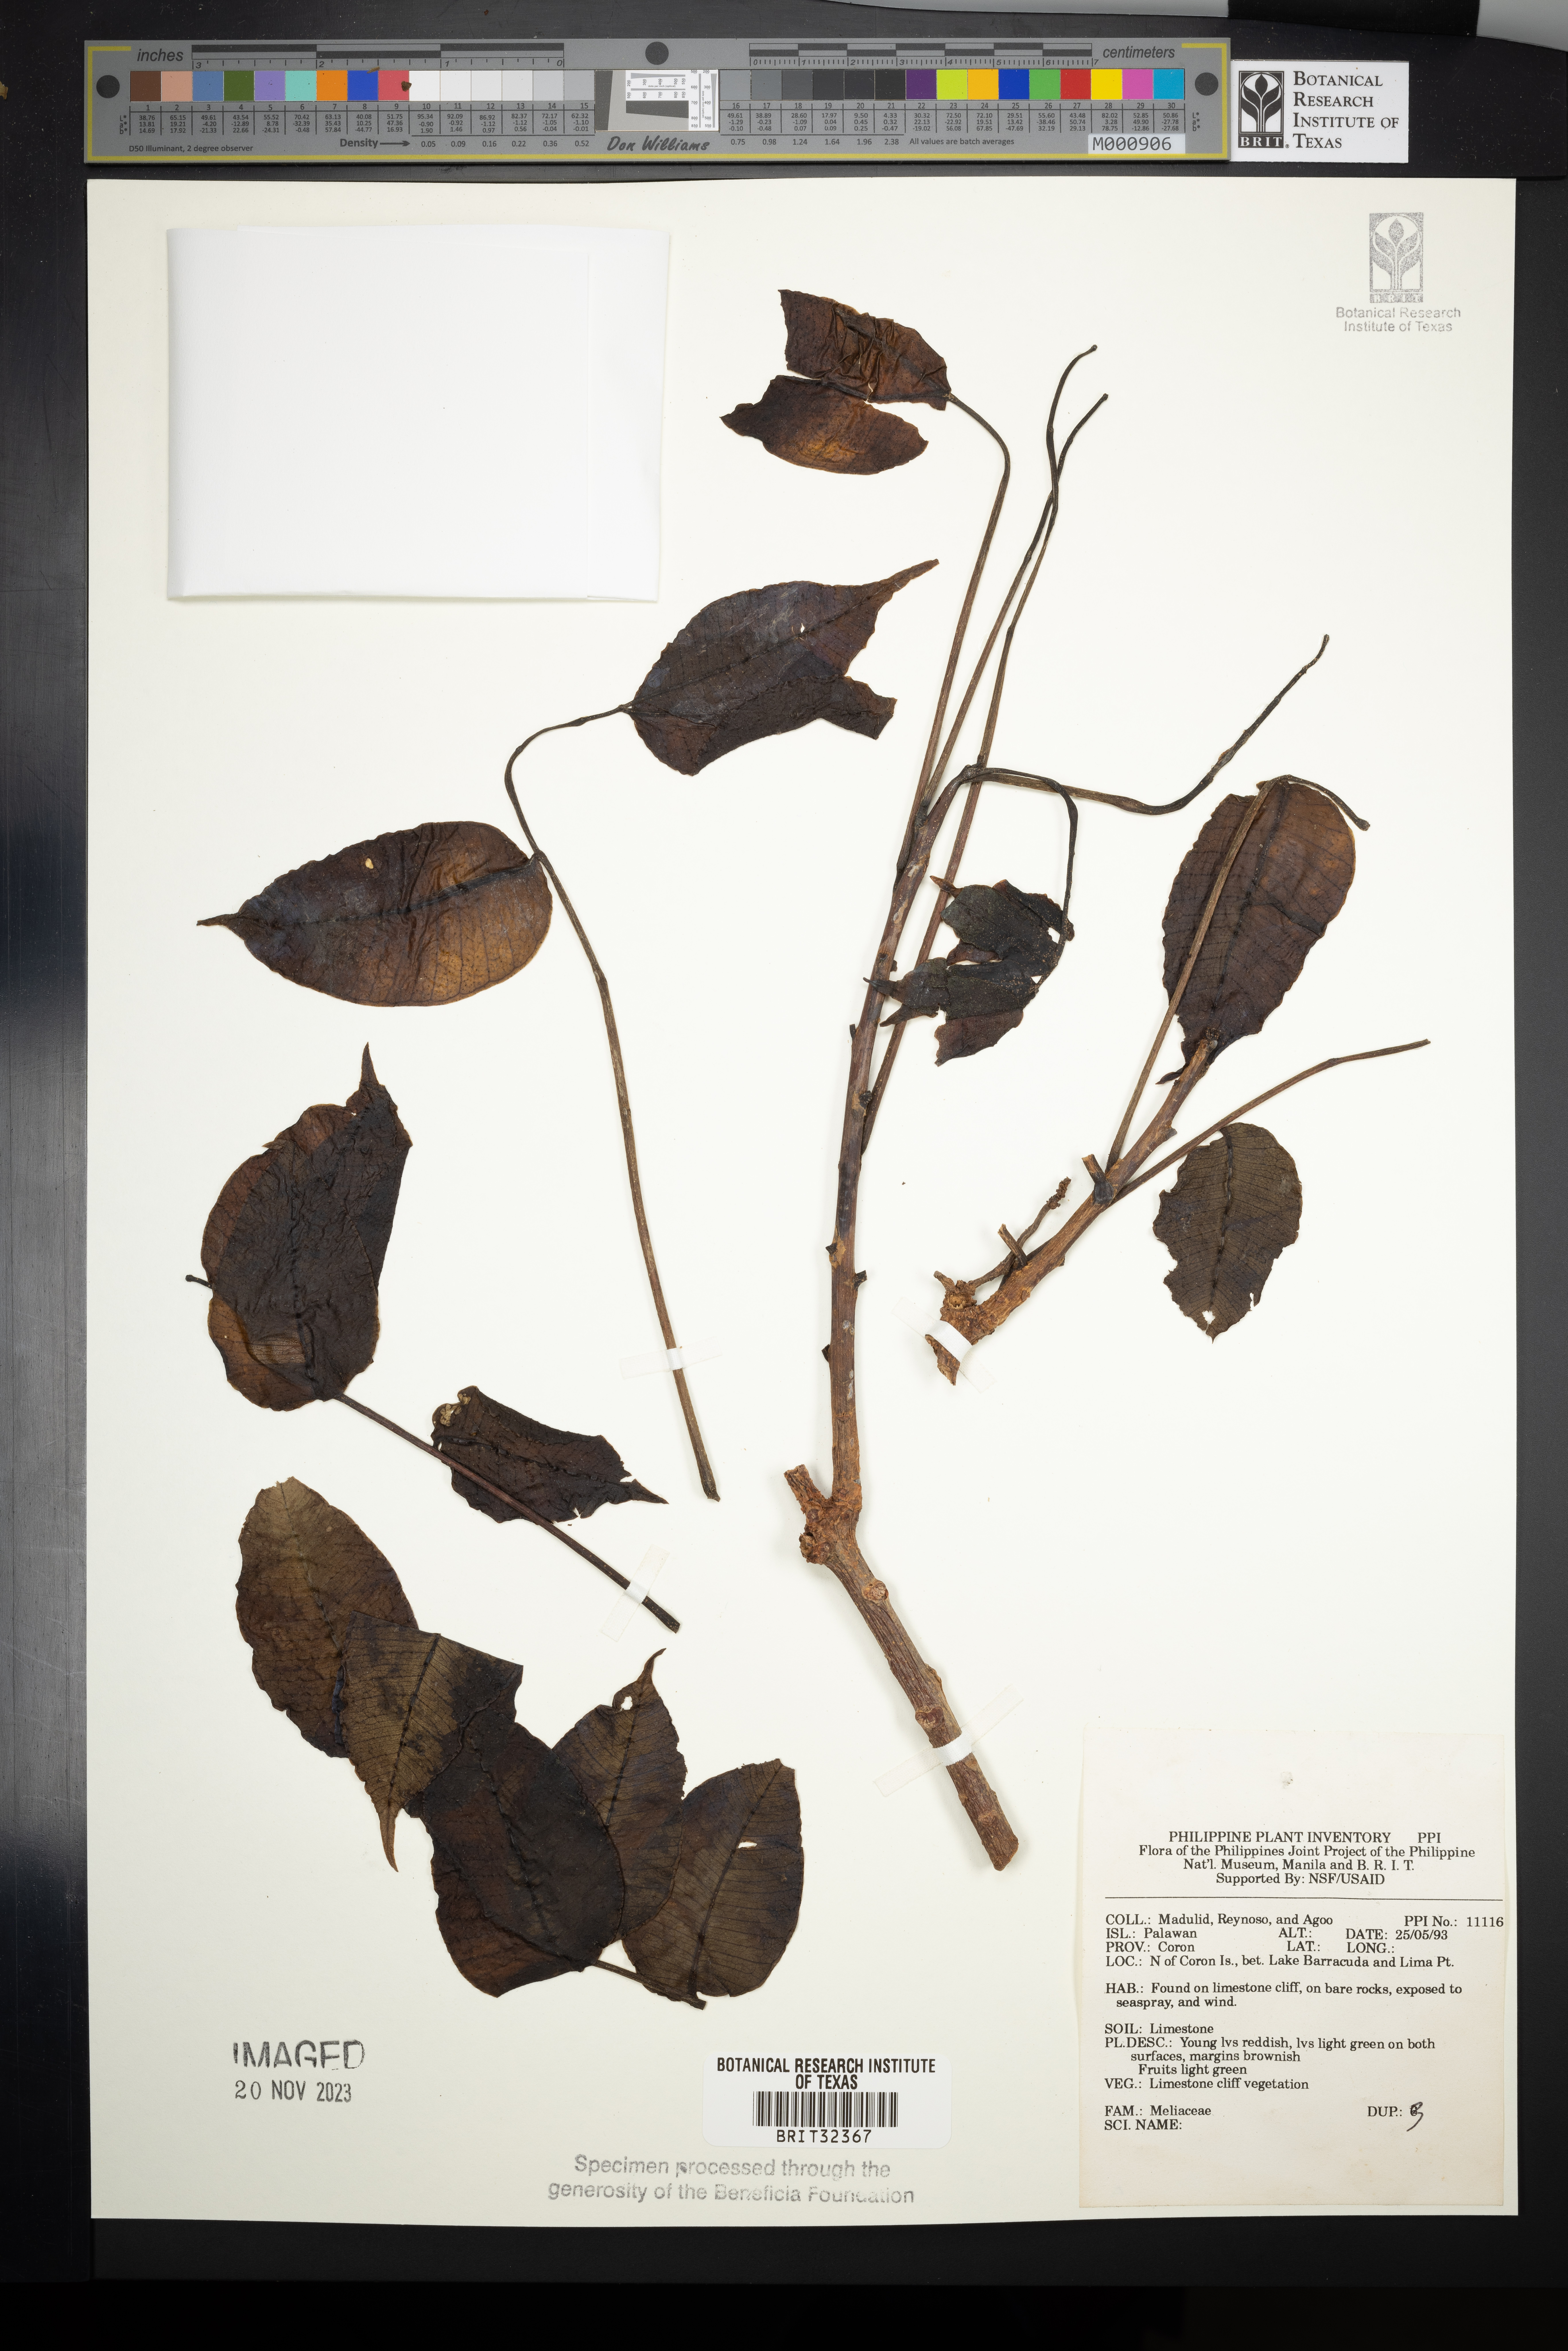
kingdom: Plantae
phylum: Tracheophyta
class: Magnoliopsida
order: Sapindales
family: Meliaceae
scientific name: Meliaceae
